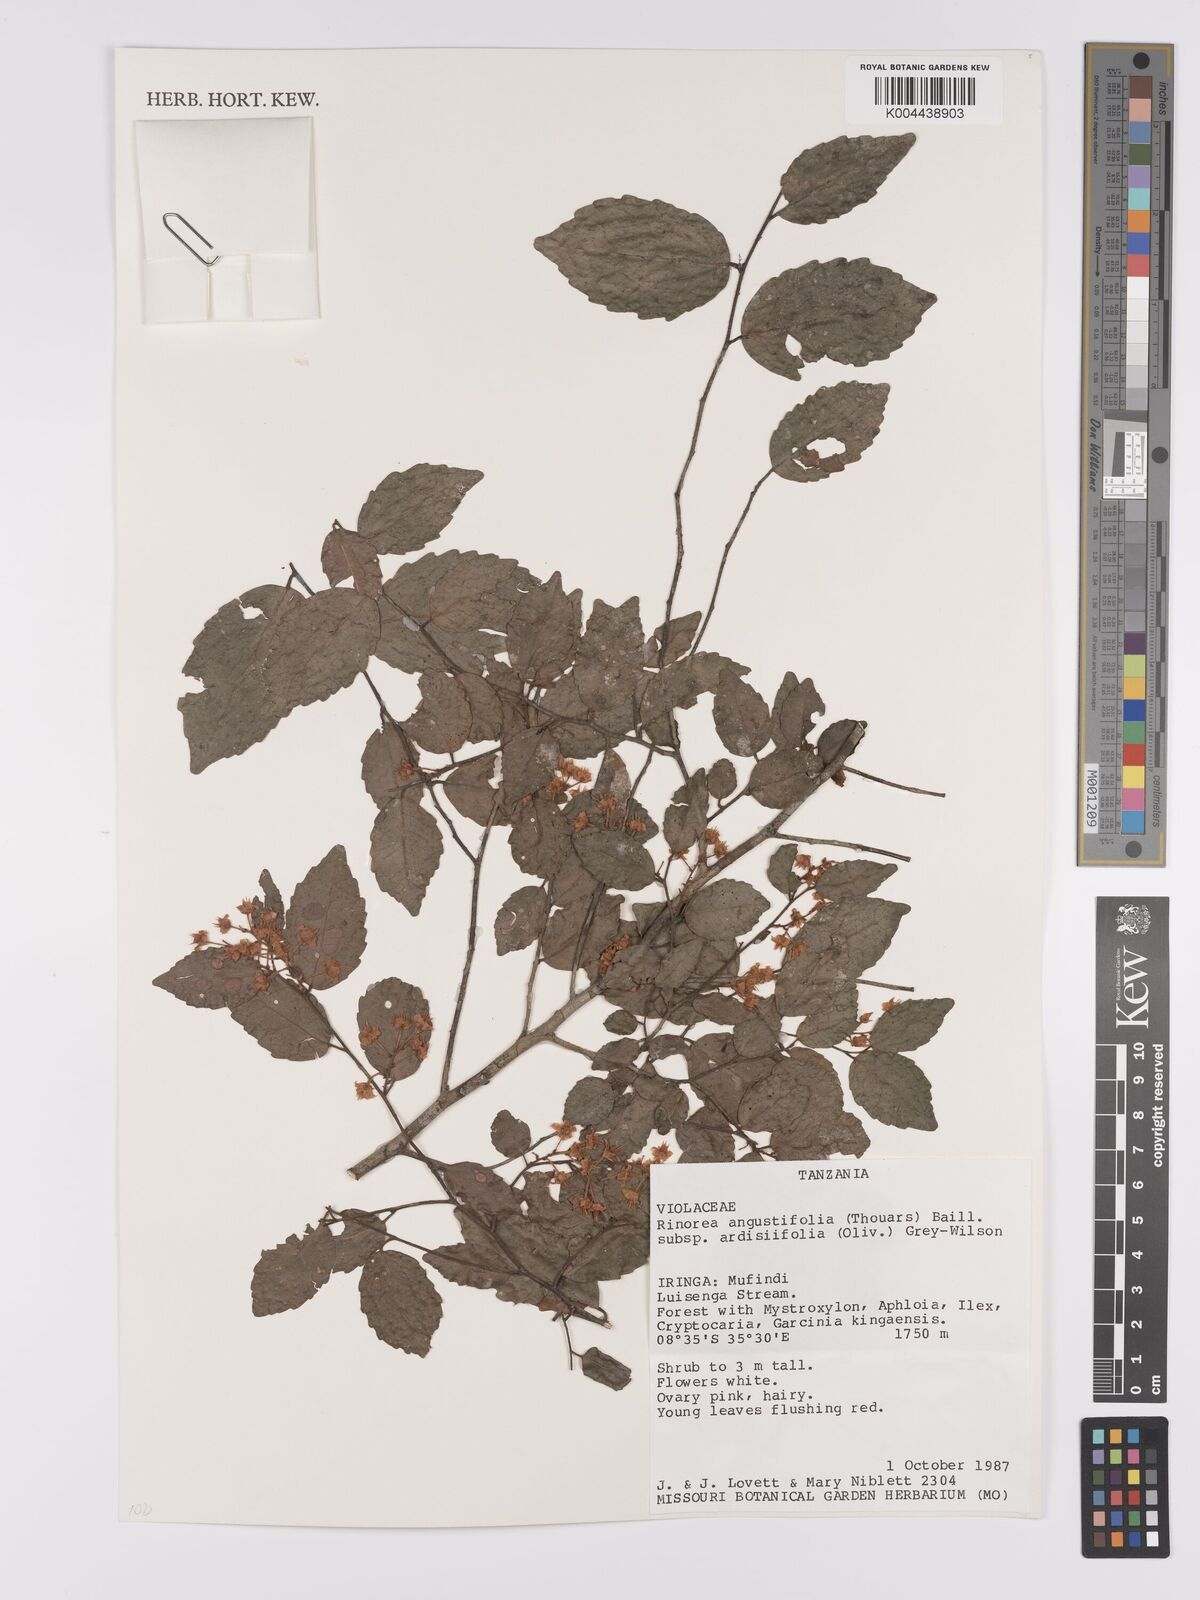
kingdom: Plantae
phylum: Tracheophyta
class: Magnoliopsida
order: Malpighiales
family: Violaceae
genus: Rinorea
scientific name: Rinorea angustifolia
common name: White violet-bush
